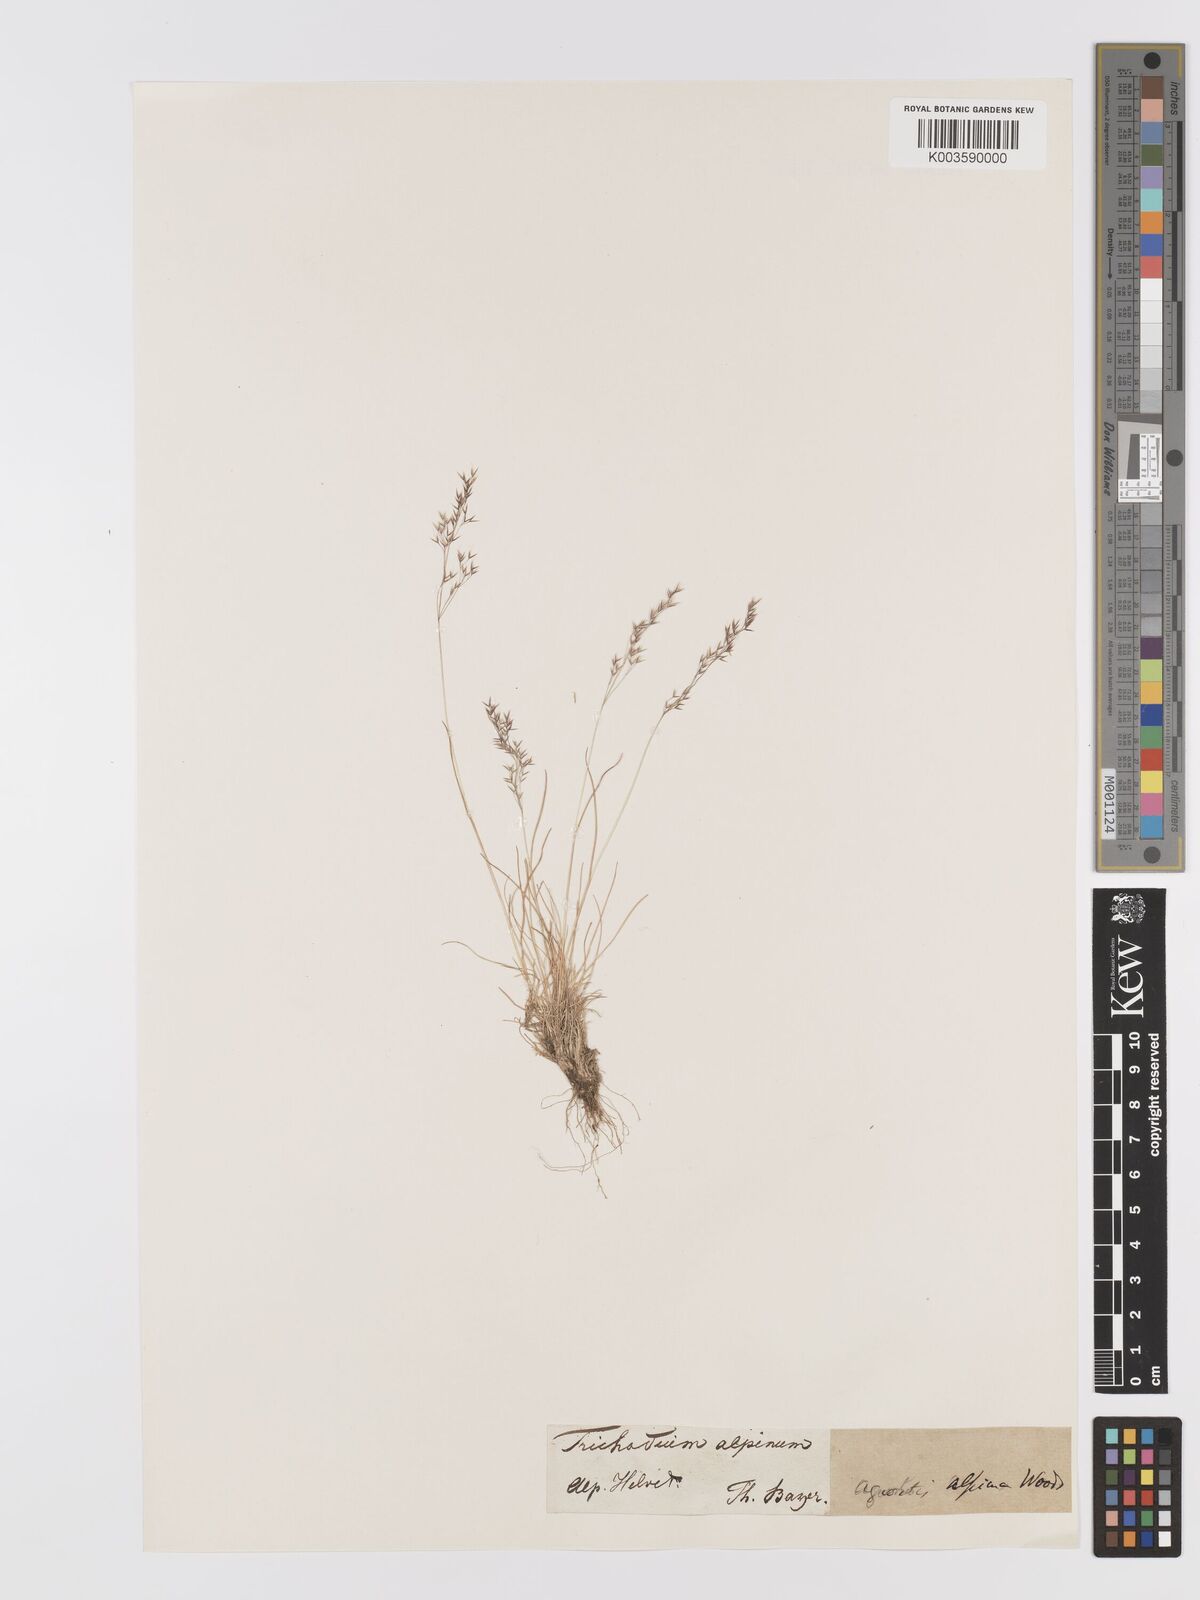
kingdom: Plantae
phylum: Tracheophyta
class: Liliopsida
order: Poales
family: Poaceae
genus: Alpagrostis
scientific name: Alpagrostis alpina
